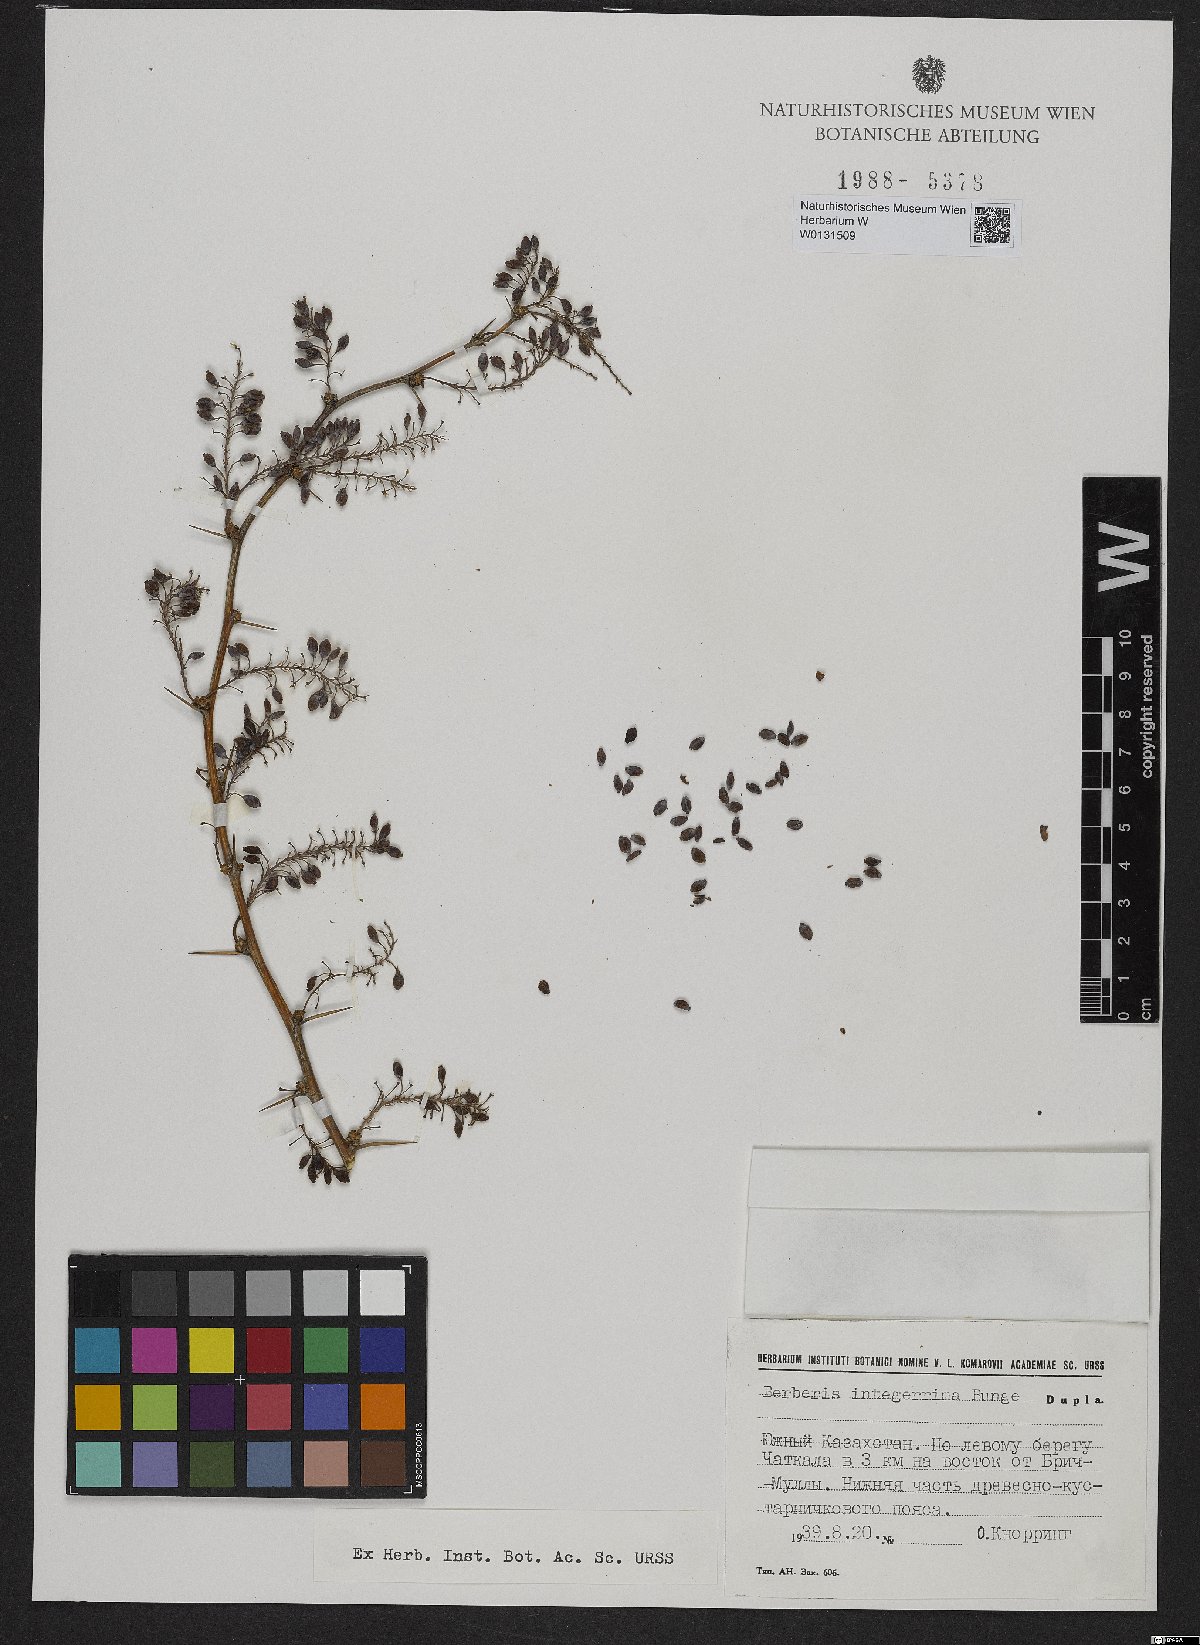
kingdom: Plantae
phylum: Tracheophyta
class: Magnoliopsida
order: Ranunculales
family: Berberidaceae
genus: Berberis
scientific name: Berberis integerrima
